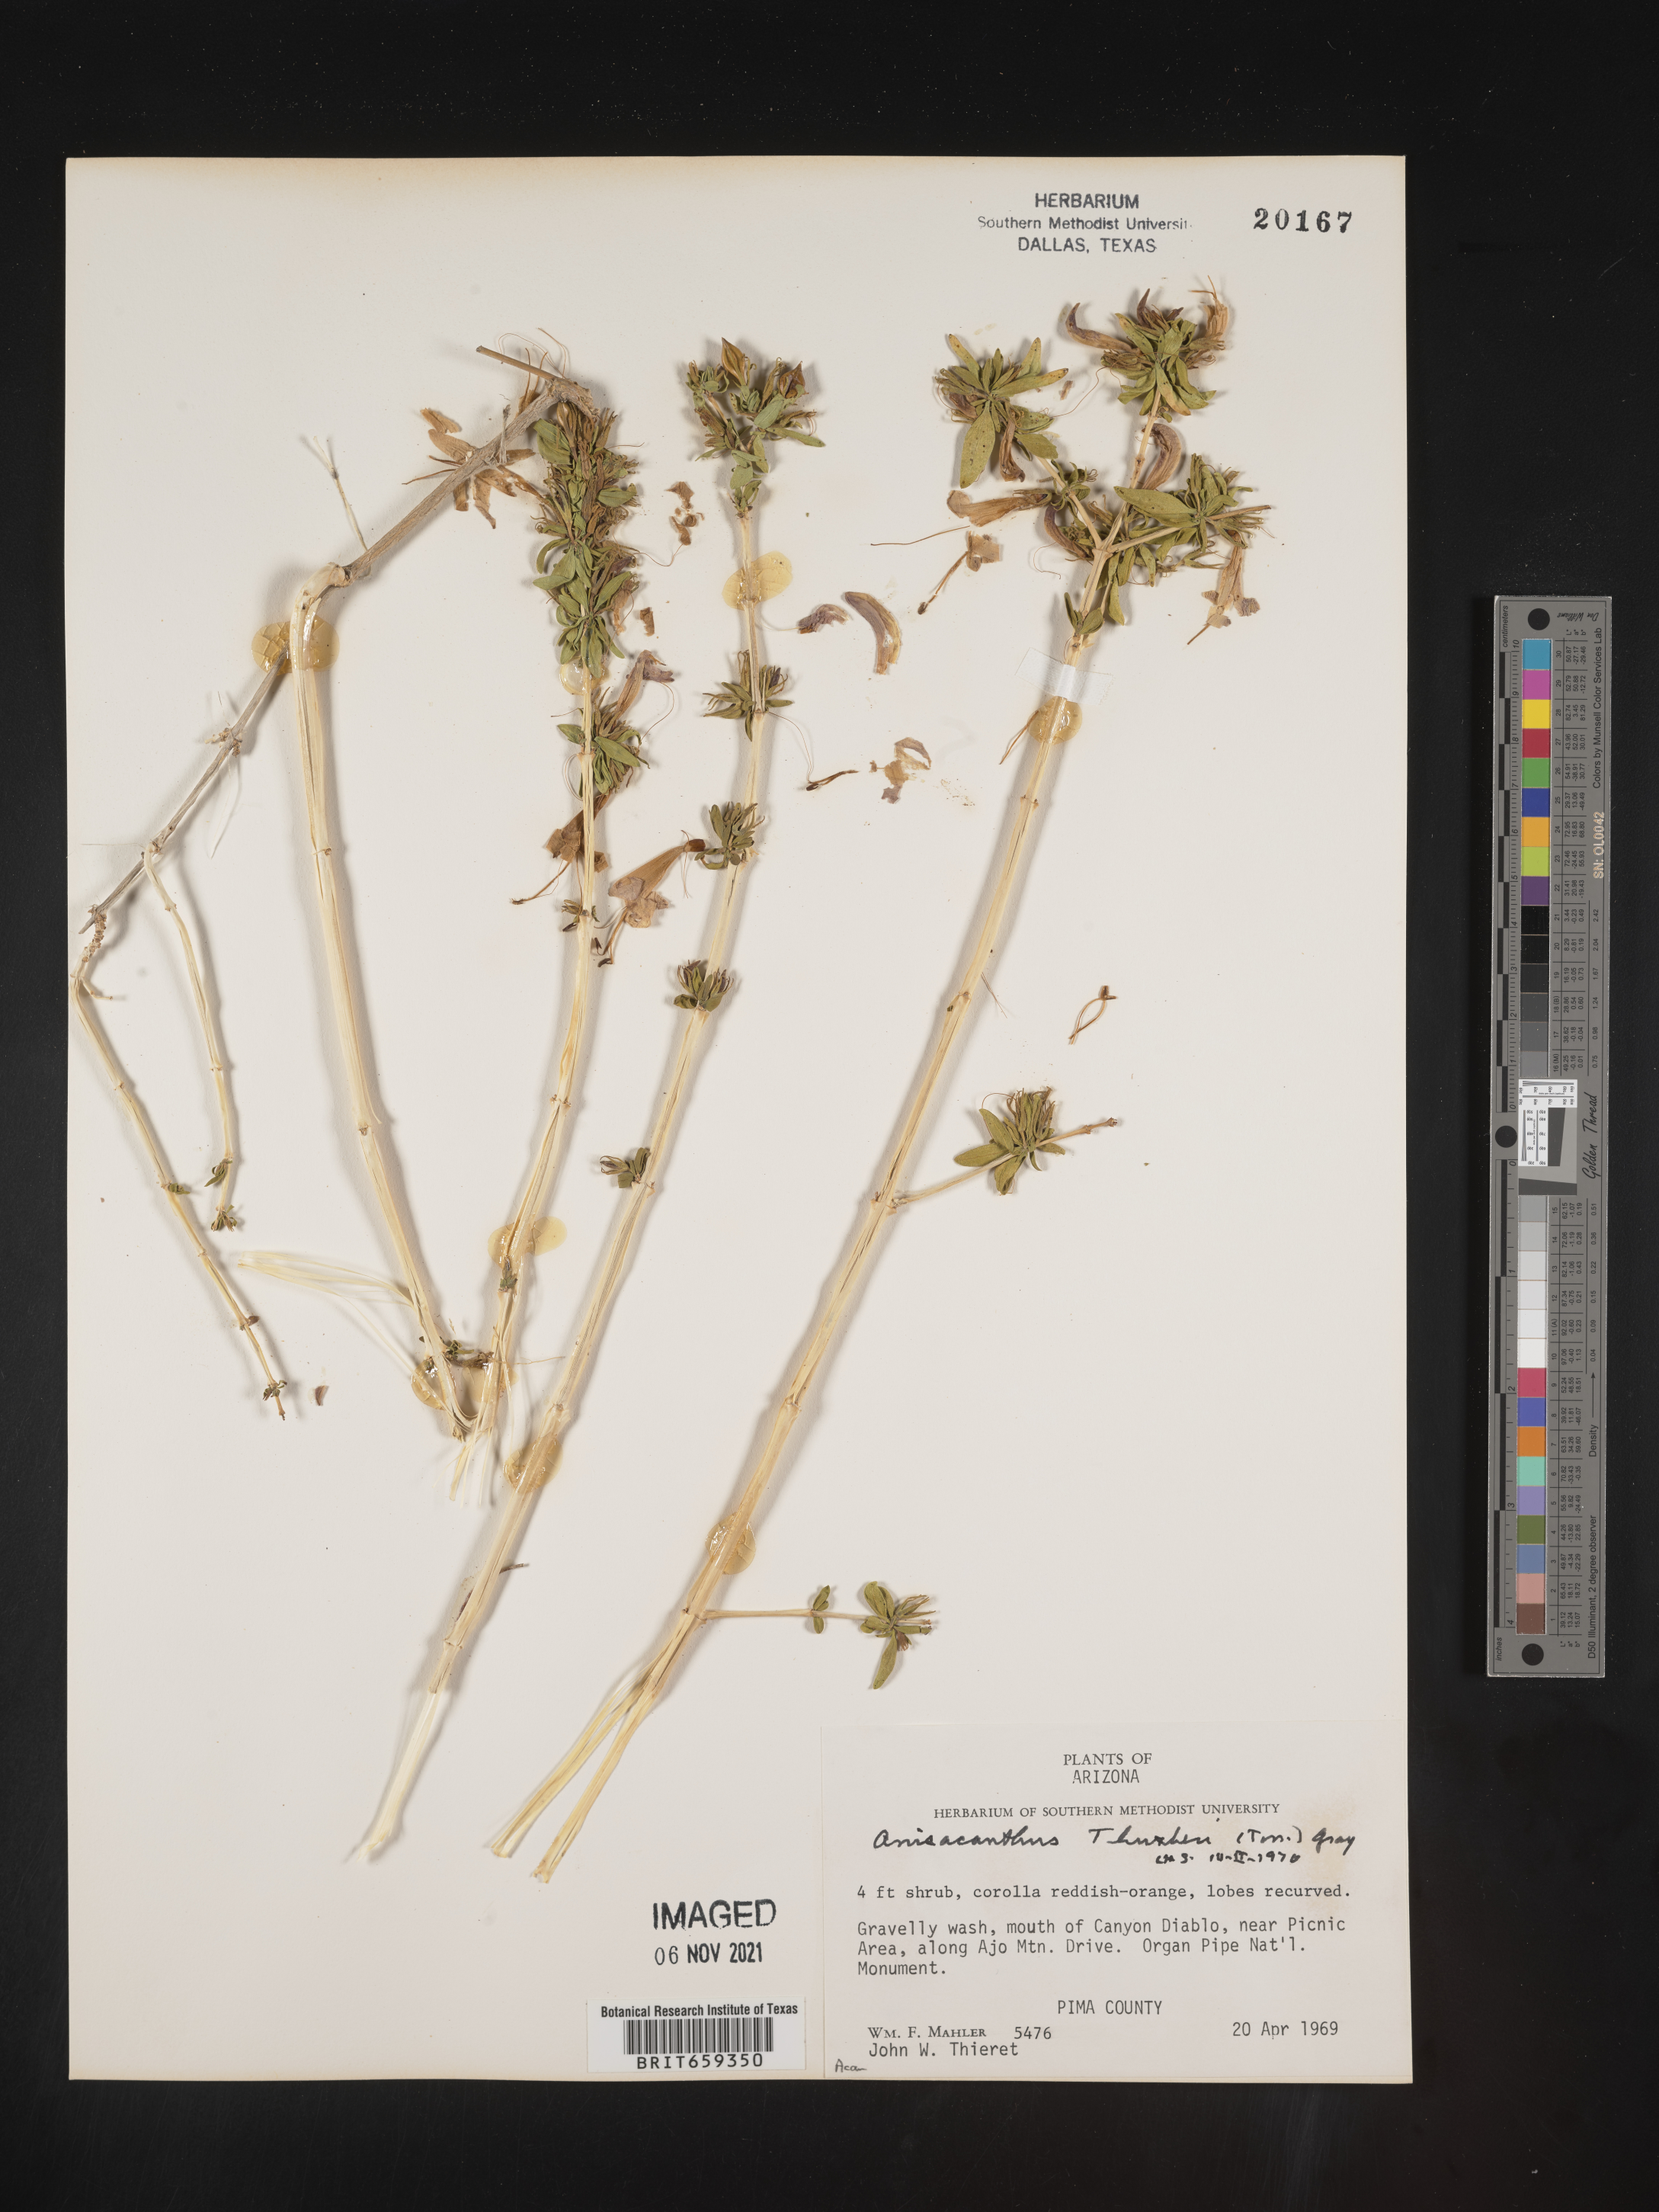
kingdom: Plantae
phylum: Tracheophyta
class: Magnoliopsida
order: Lamiales
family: Acanthaceae
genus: Anisacanthus
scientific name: Anisacanthus
